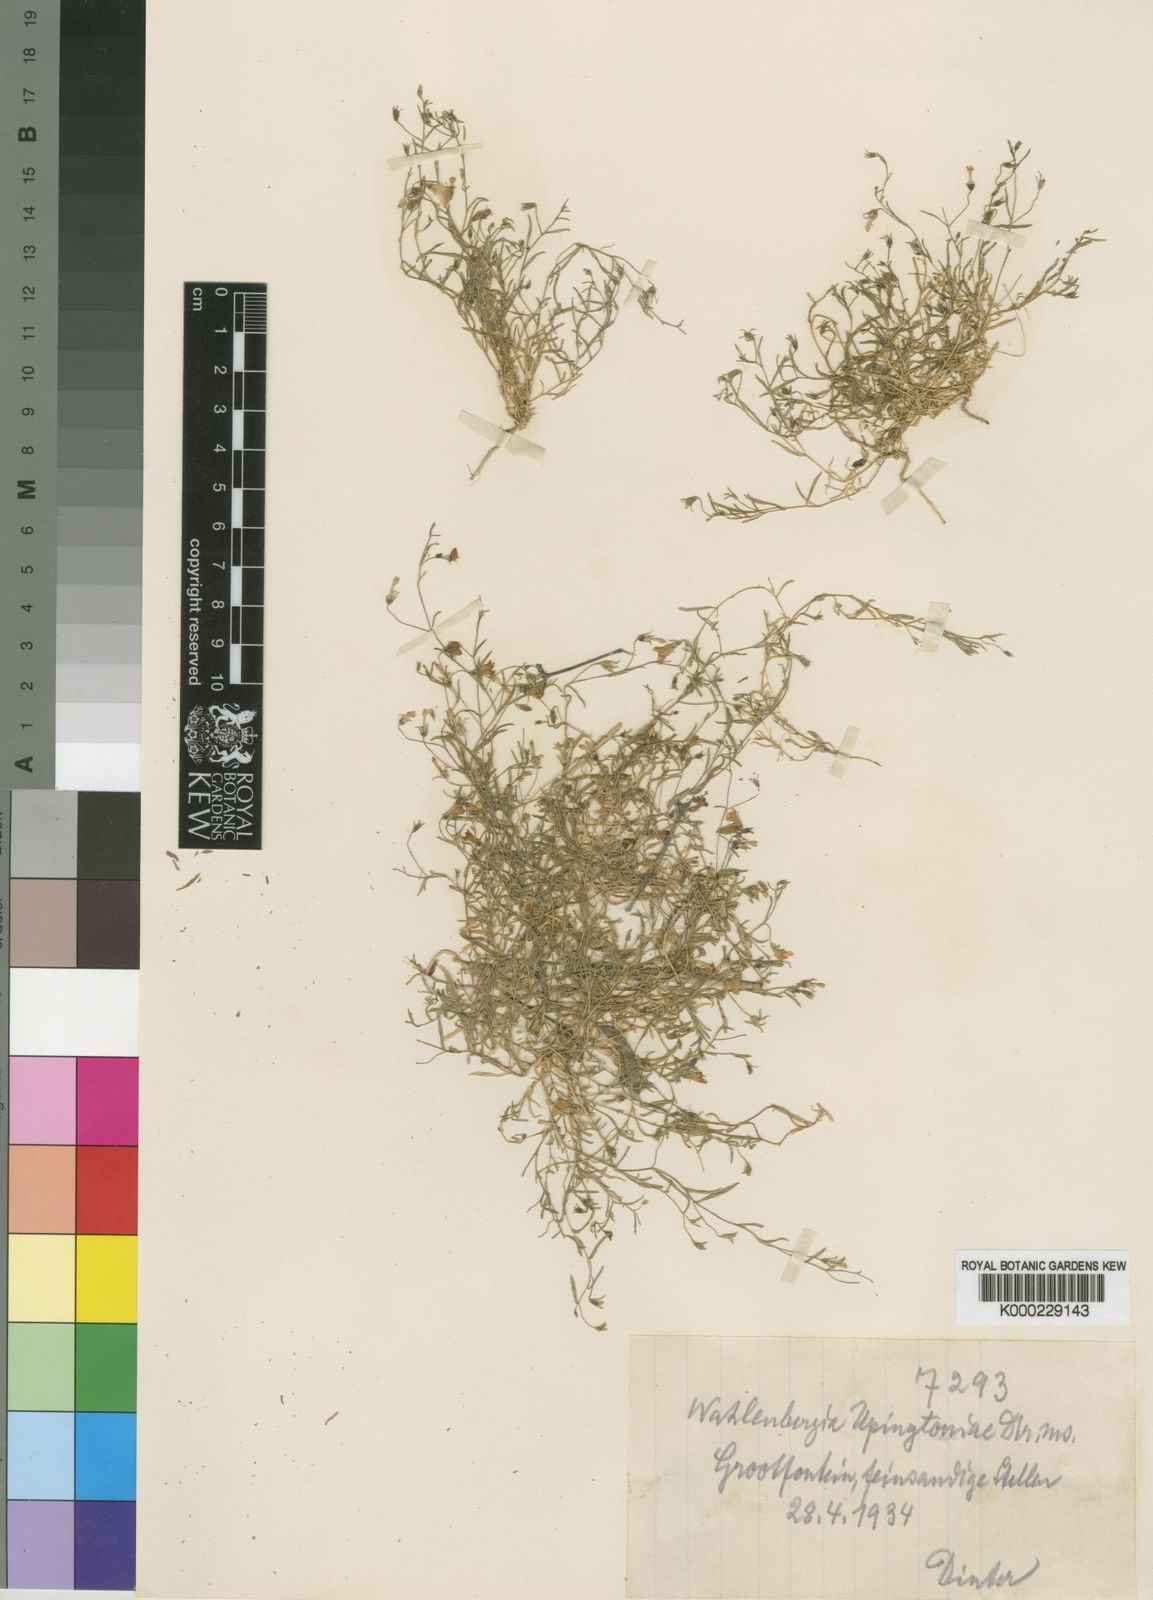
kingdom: Plantae
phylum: Tracheophyta
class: Magnoliopsida
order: Asterales
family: Campanulaceae
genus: Wahlenbergia
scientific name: Wahlenbergia
